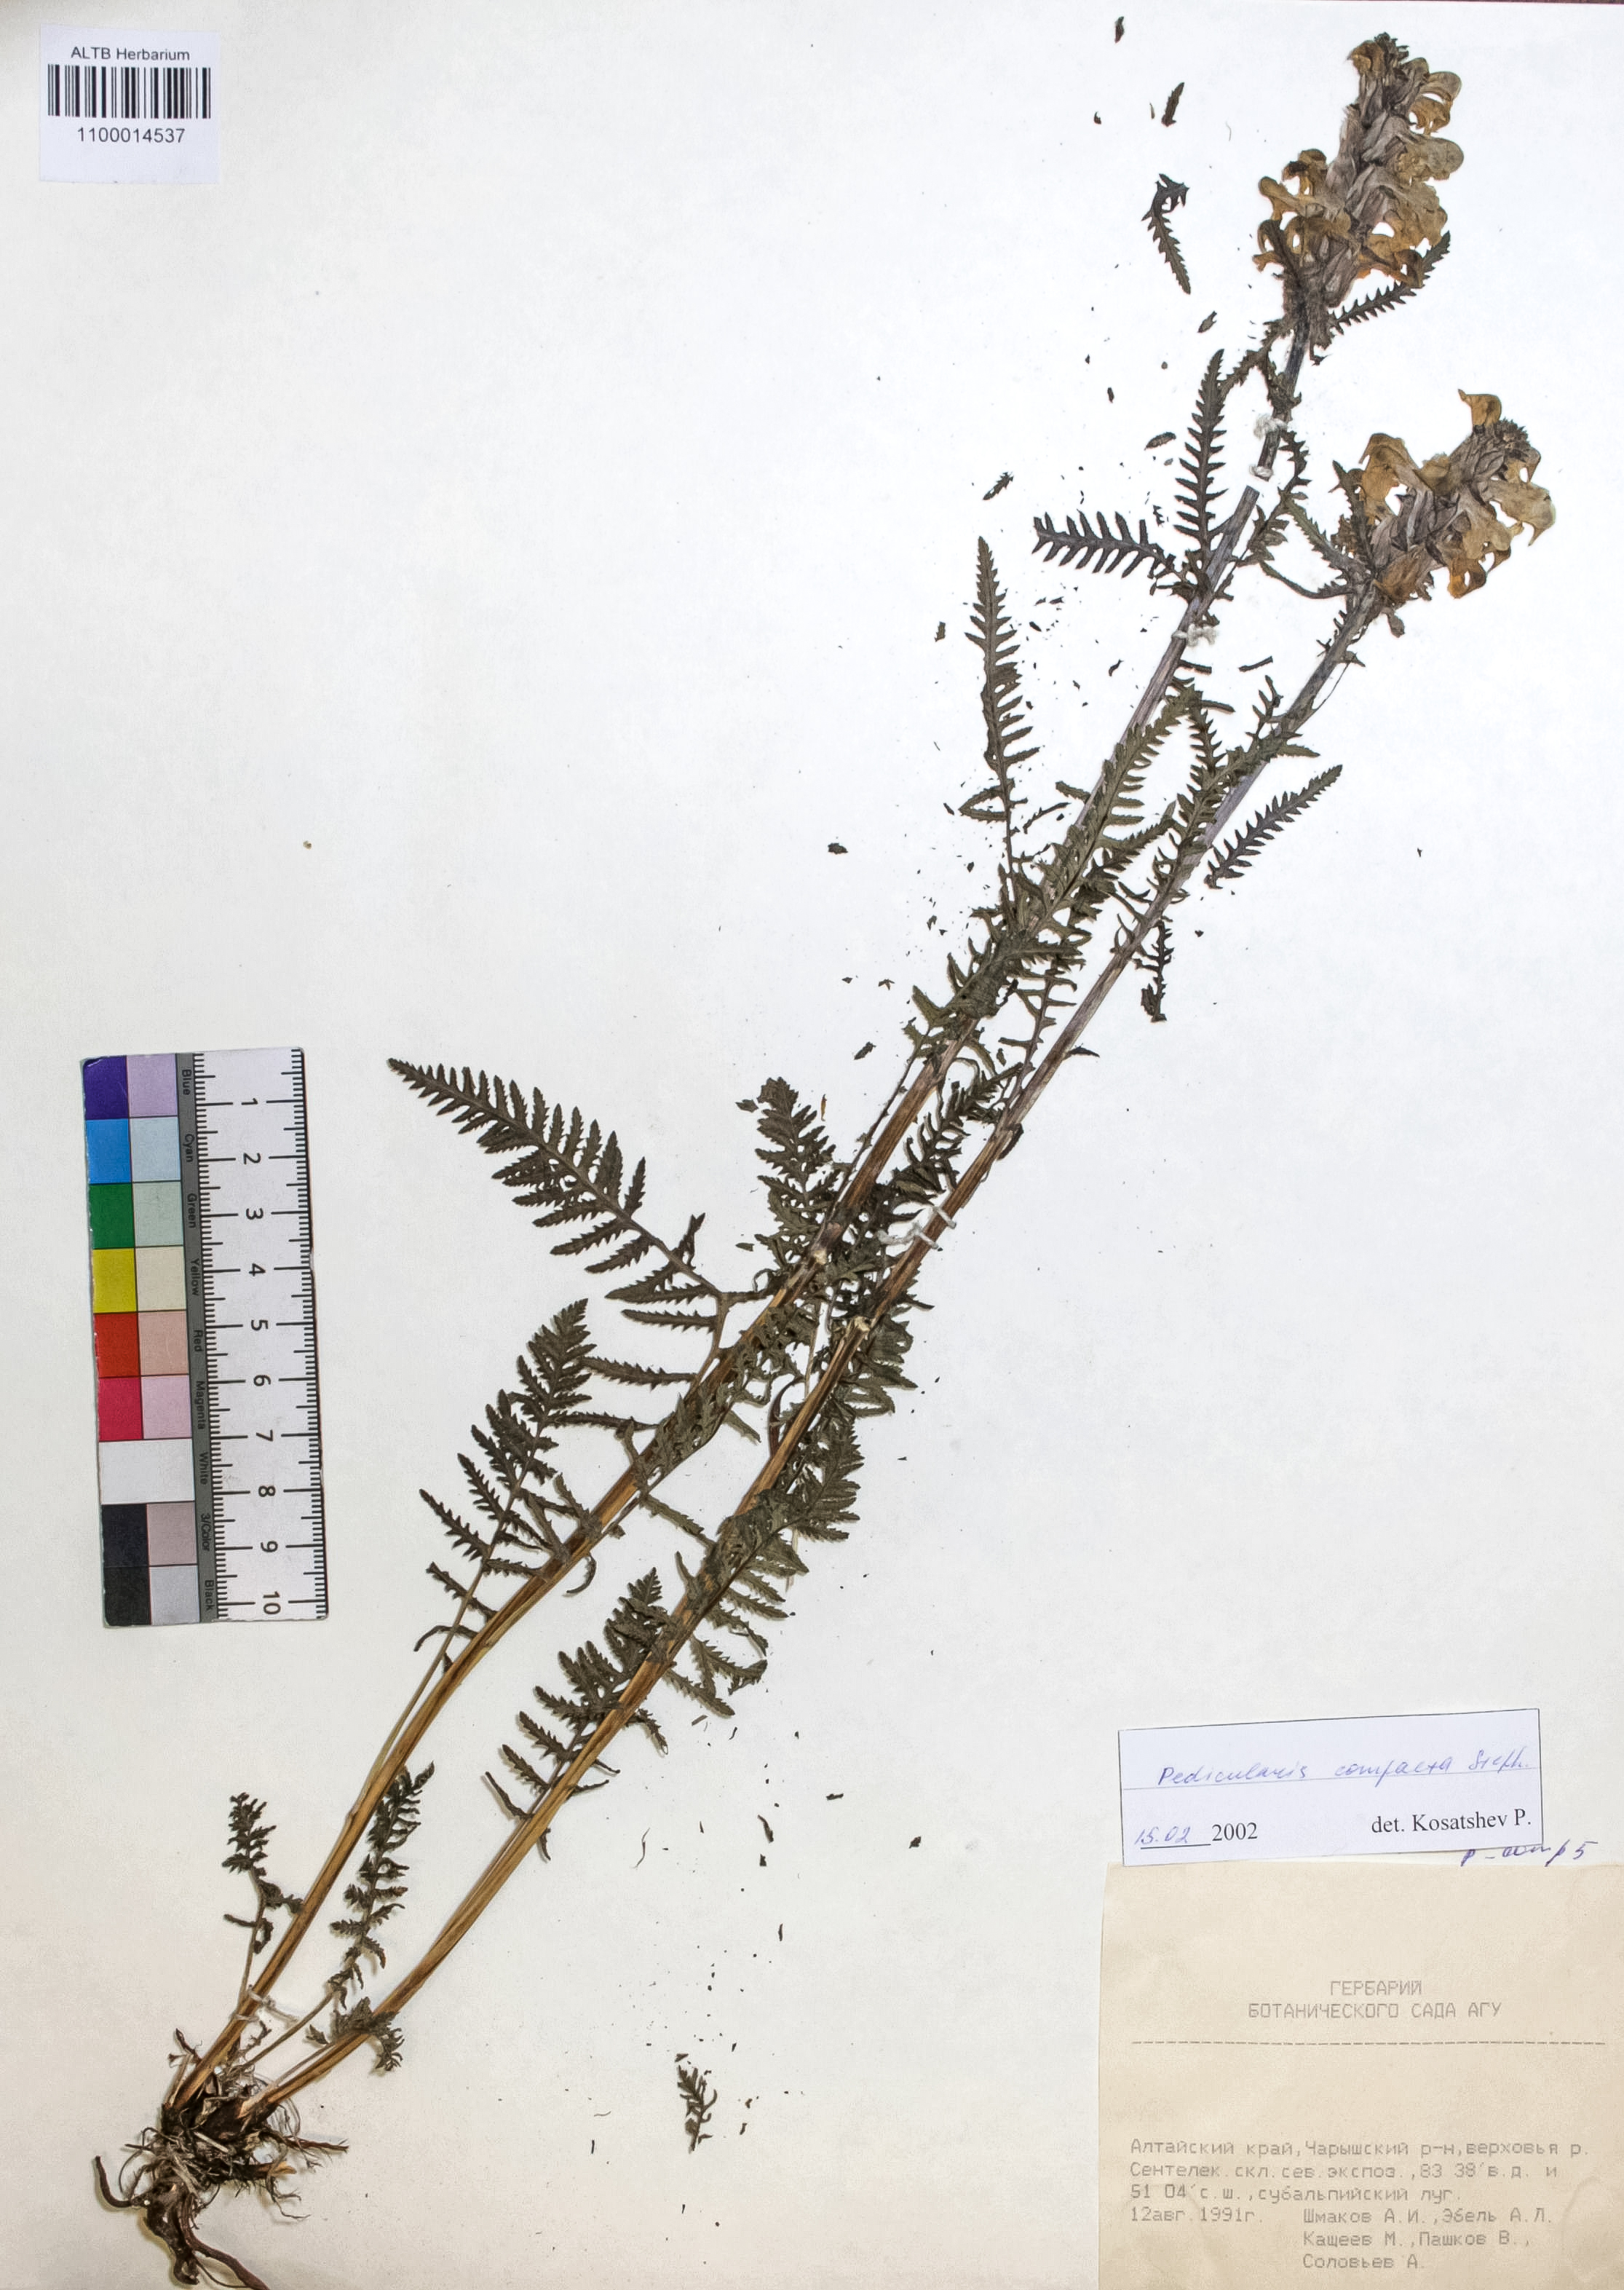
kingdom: Plantae
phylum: Tracheophyta
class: Magnoliopsida
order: Lamiales
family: Orobanchaceae
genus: Pedicularis
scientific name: Pedicularis compacta
